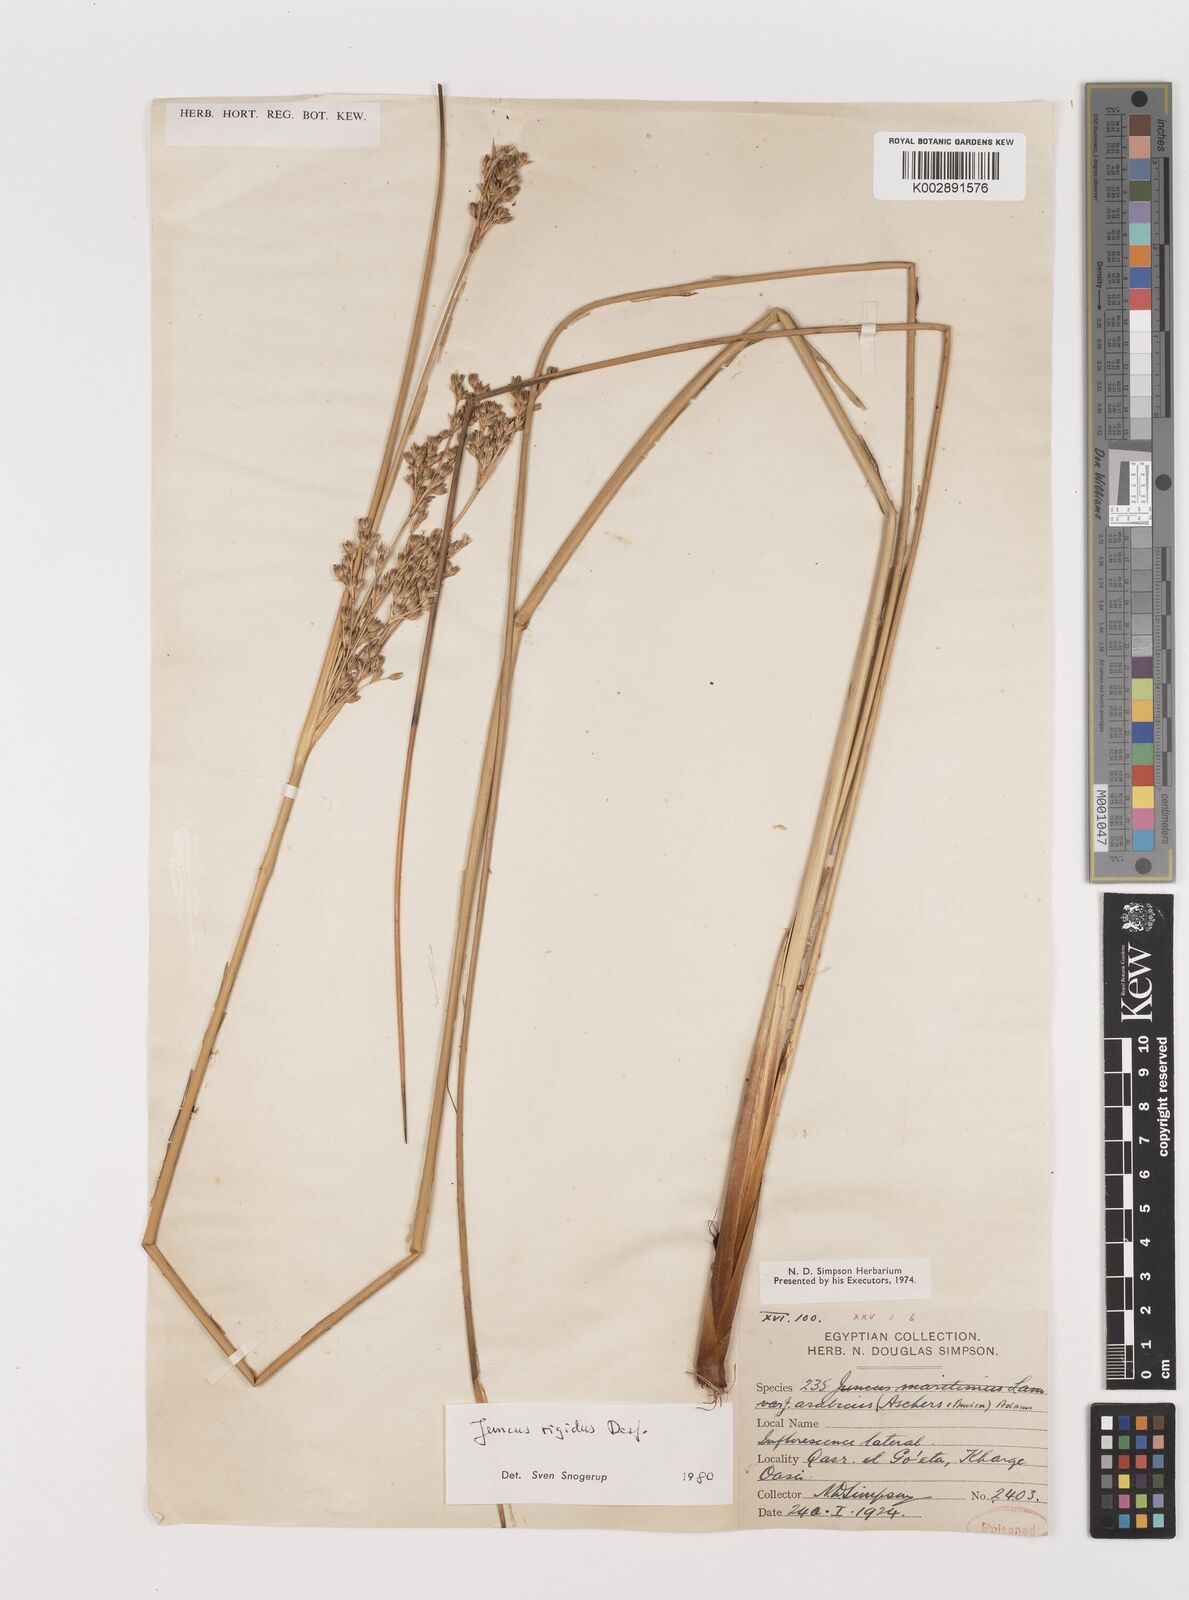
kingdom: Plantae
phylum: Tracheophyta
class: Liliopsida
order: Poales
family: Juncaceae
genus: Juncus
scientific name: Juncus rigidus
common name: Hard sea rush
